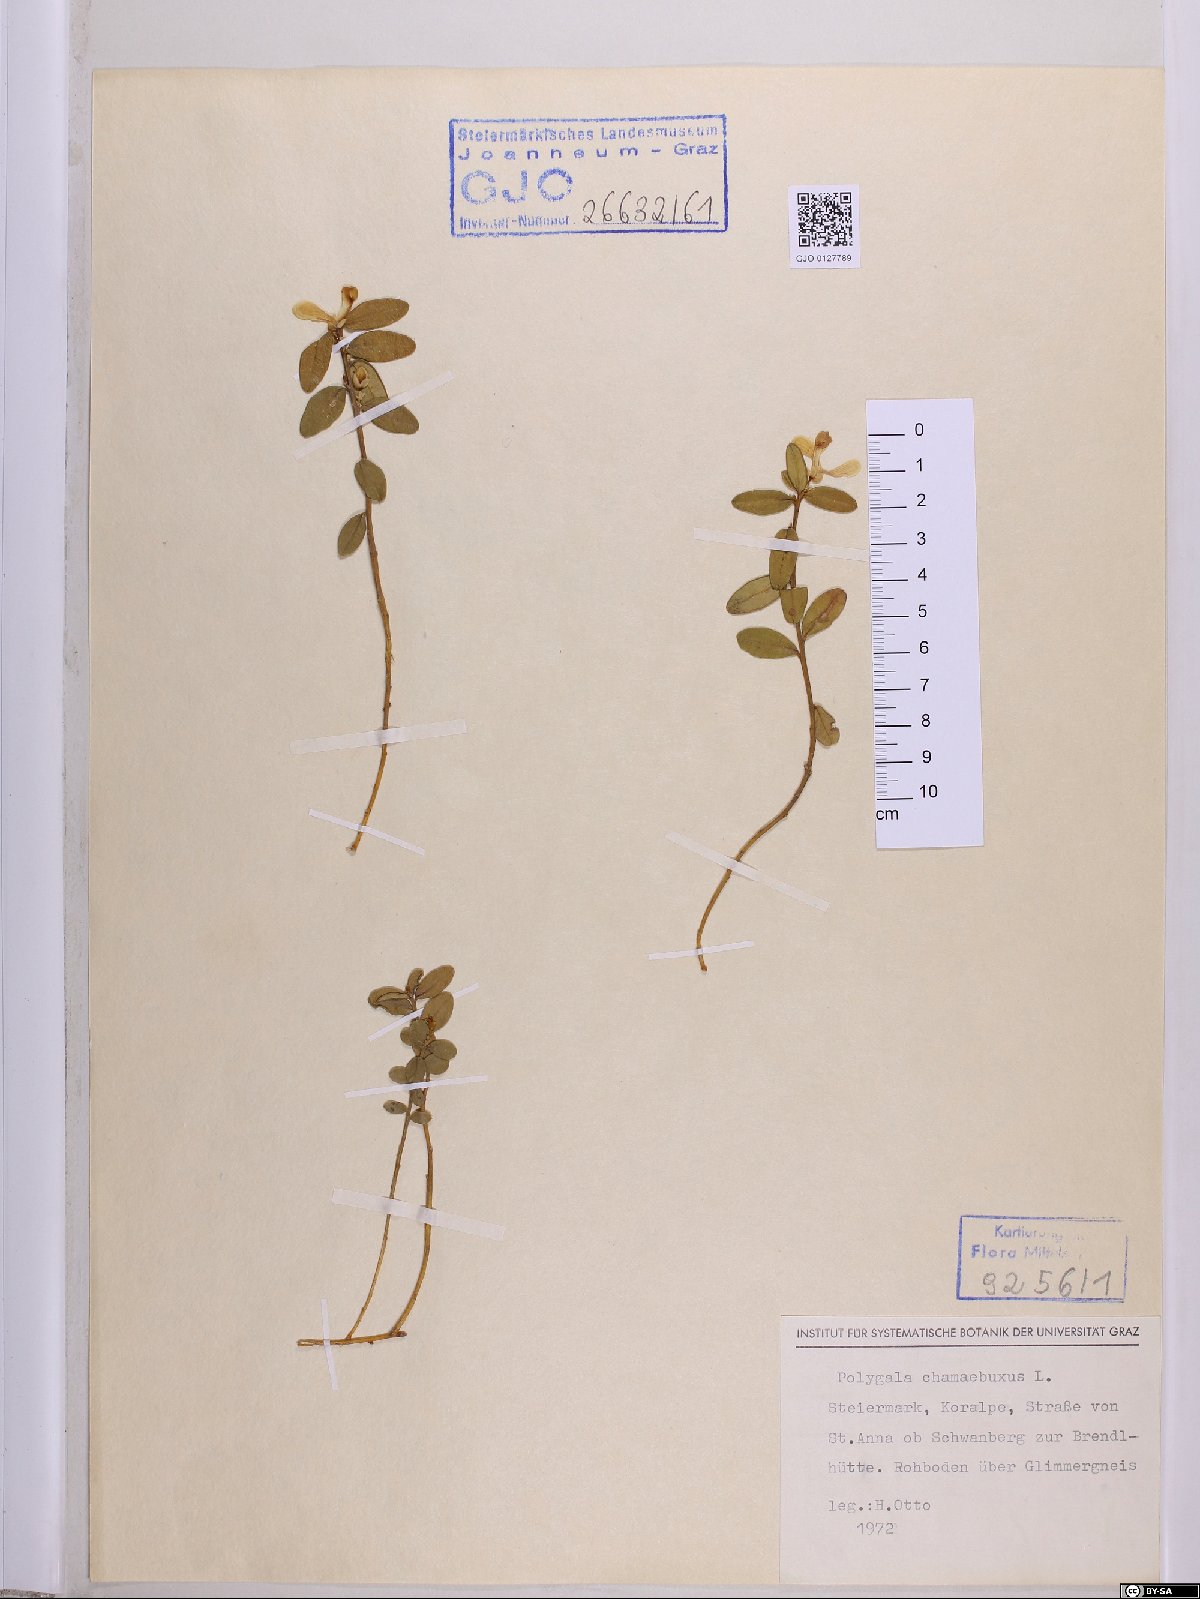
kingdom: Plantae
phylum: Tracheophyta
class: Magnoliopsida
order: Fabales
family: Polygalaceae
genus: Polygaloides
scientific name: Polygaloides chamaebuxus
